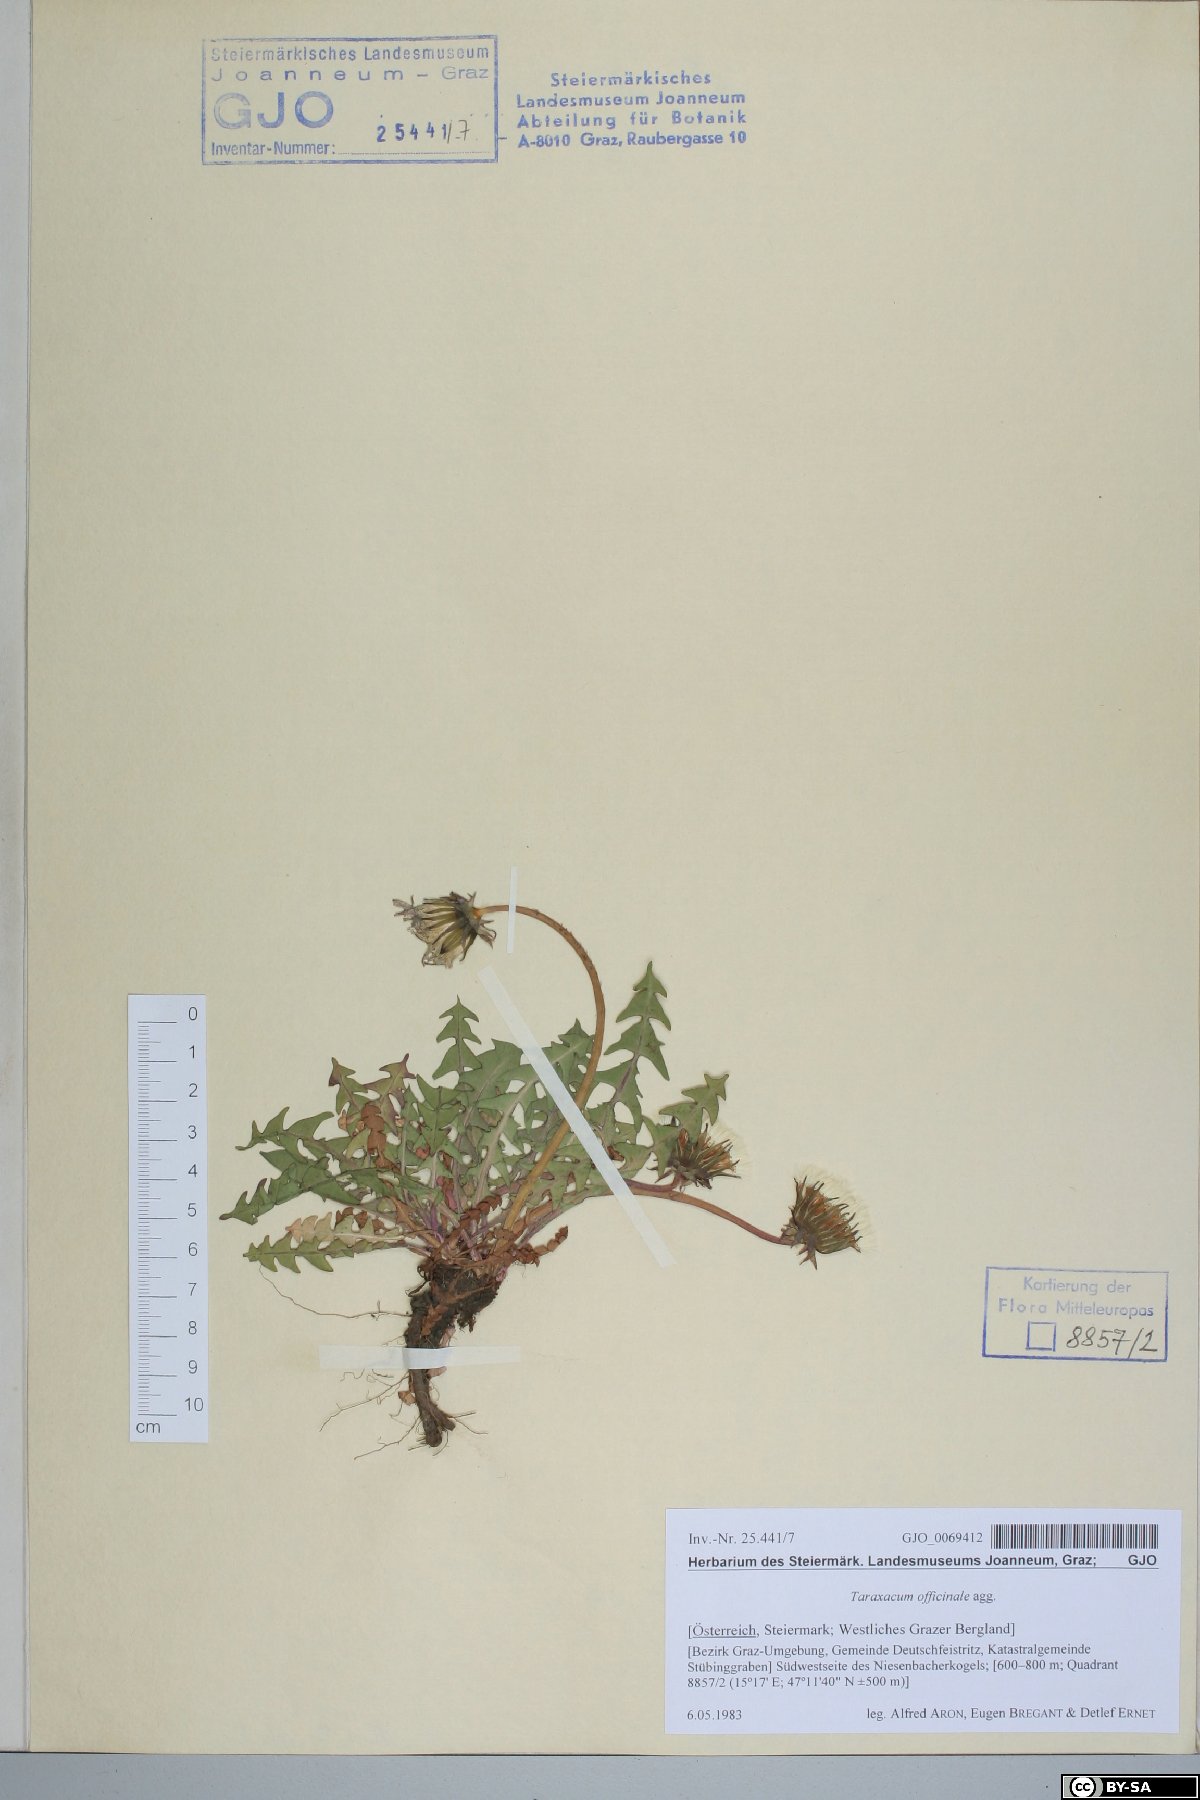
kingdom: Plantae
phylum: Tracheophyta
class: Magnoliopsida
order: Asterales
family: Asteraceae
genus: Taraxacum
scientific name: Taraxacum officinale
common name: Common dandelion
